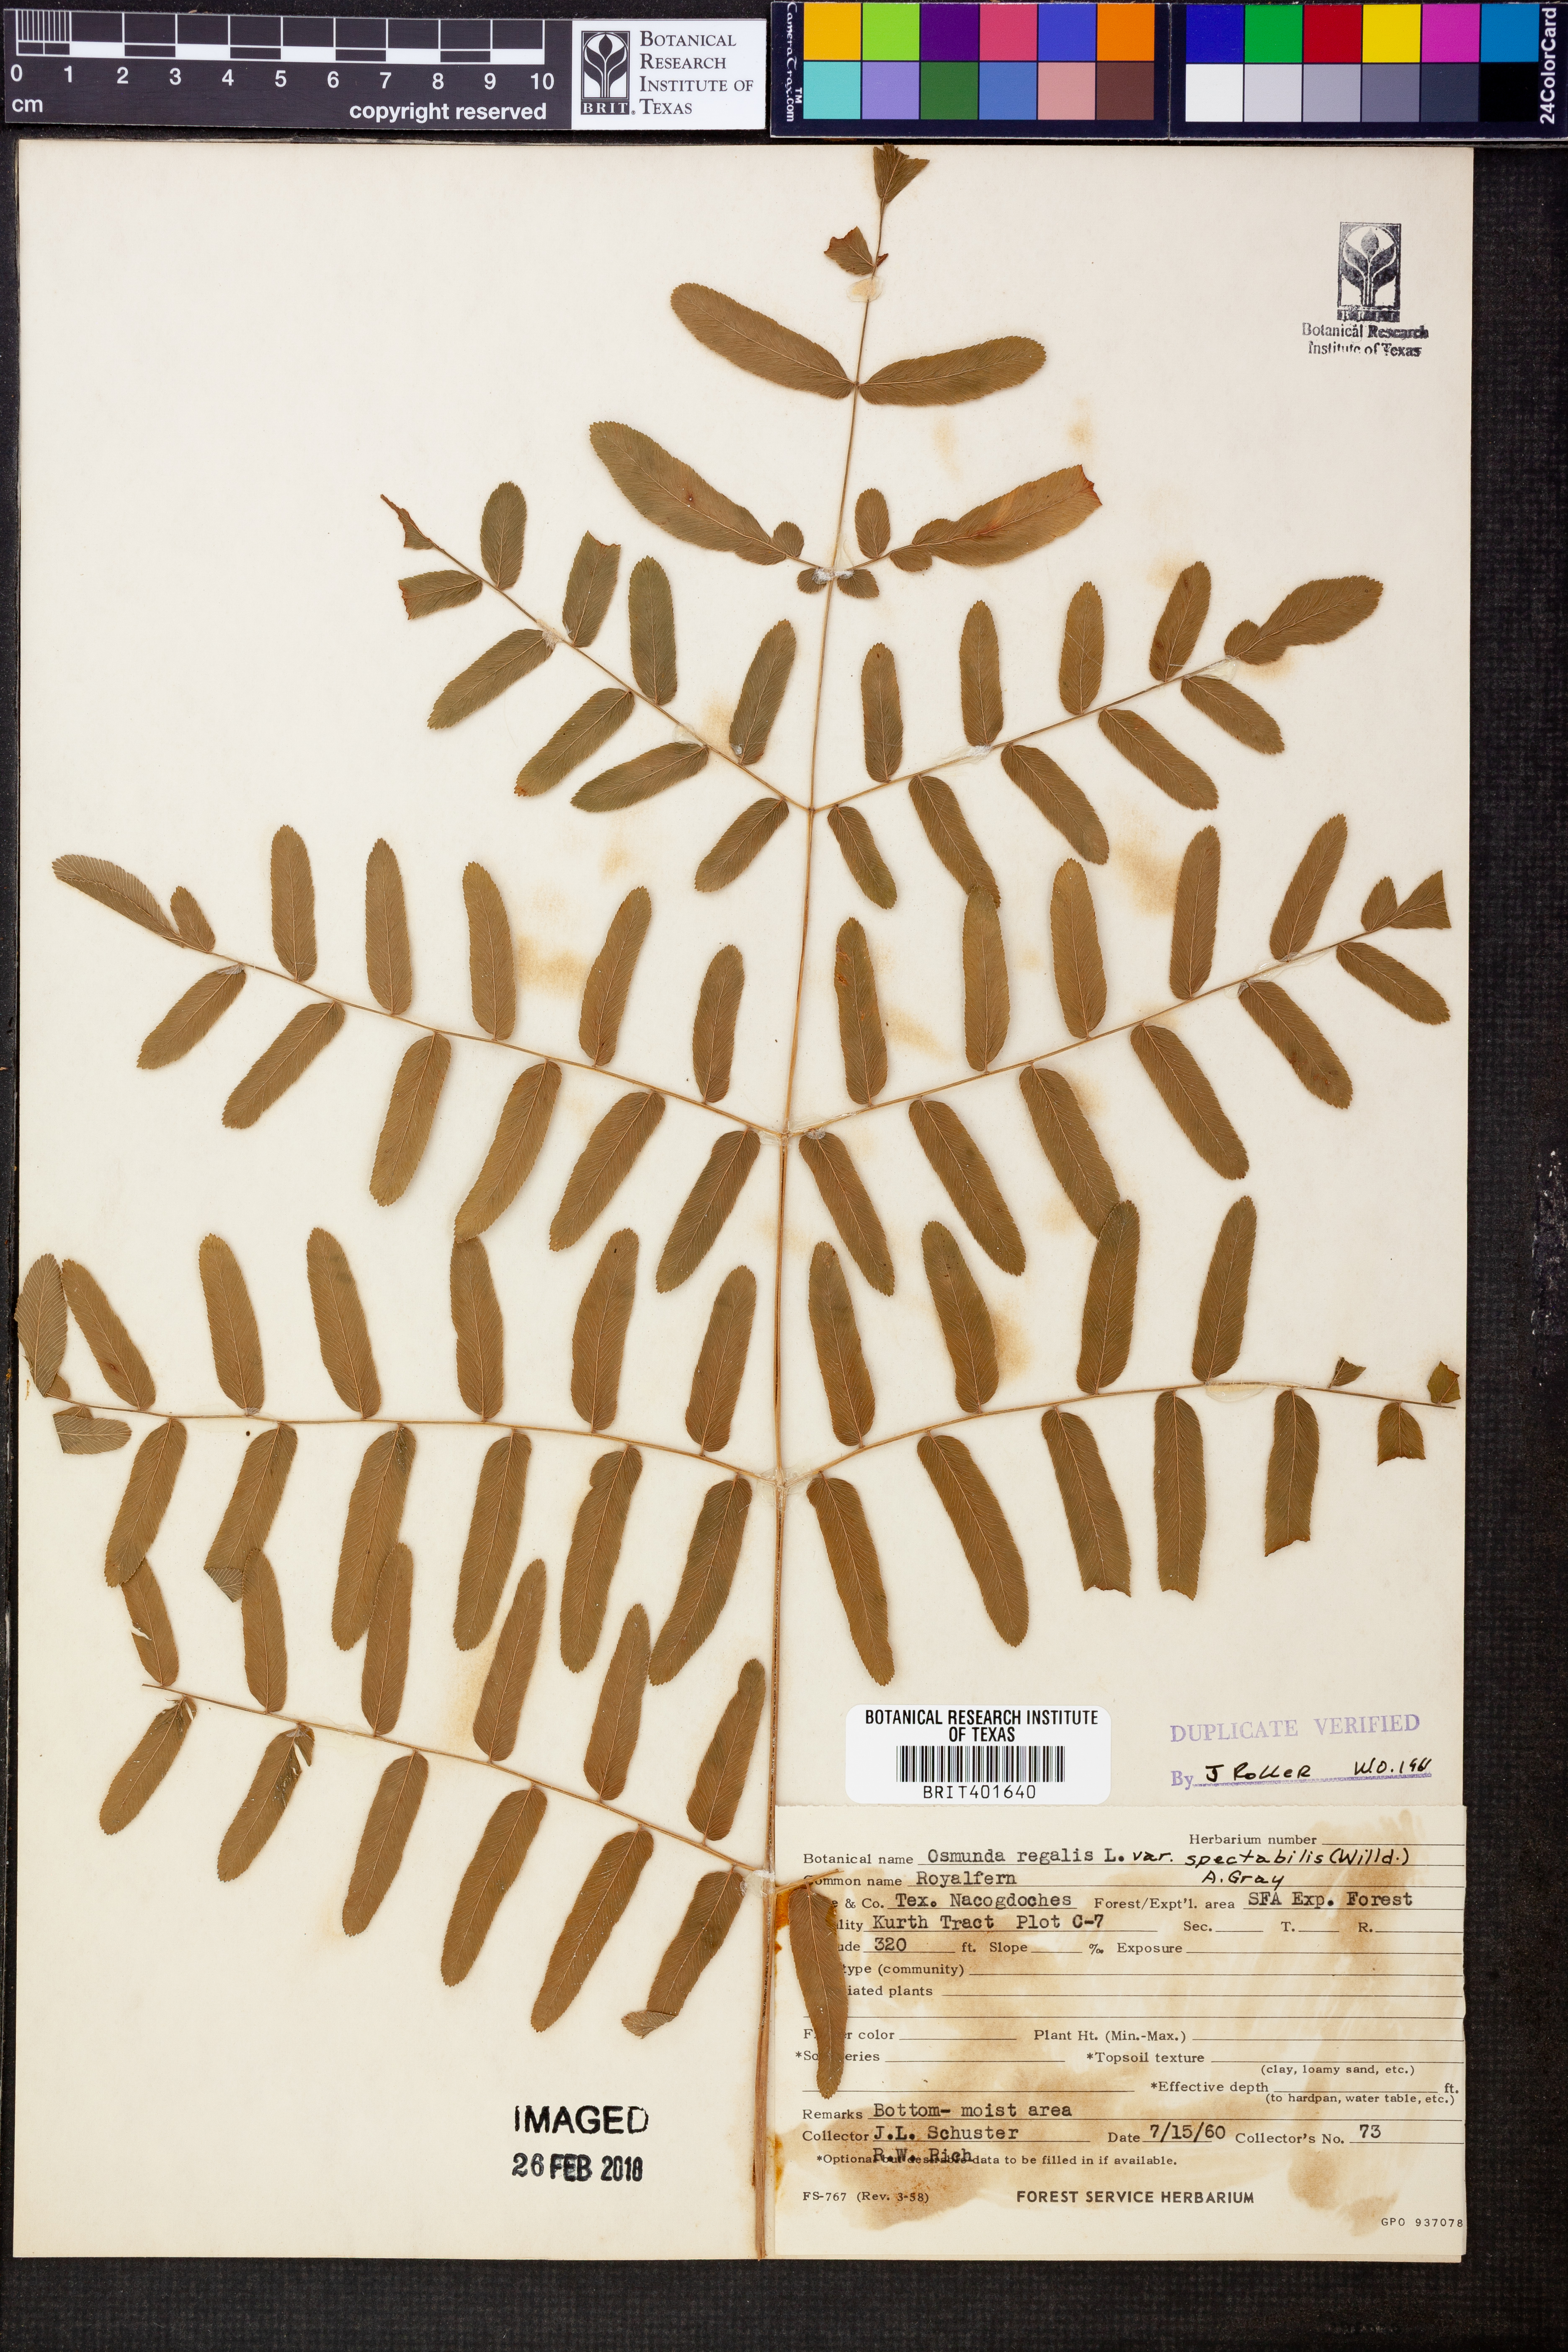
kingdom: Plantae
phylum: Tracheophyta
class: Polypodiopsida
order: Osmundales
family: Osmundaceae
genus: Osmunda
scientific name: Osmunda spectabilis
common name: American royal fern
